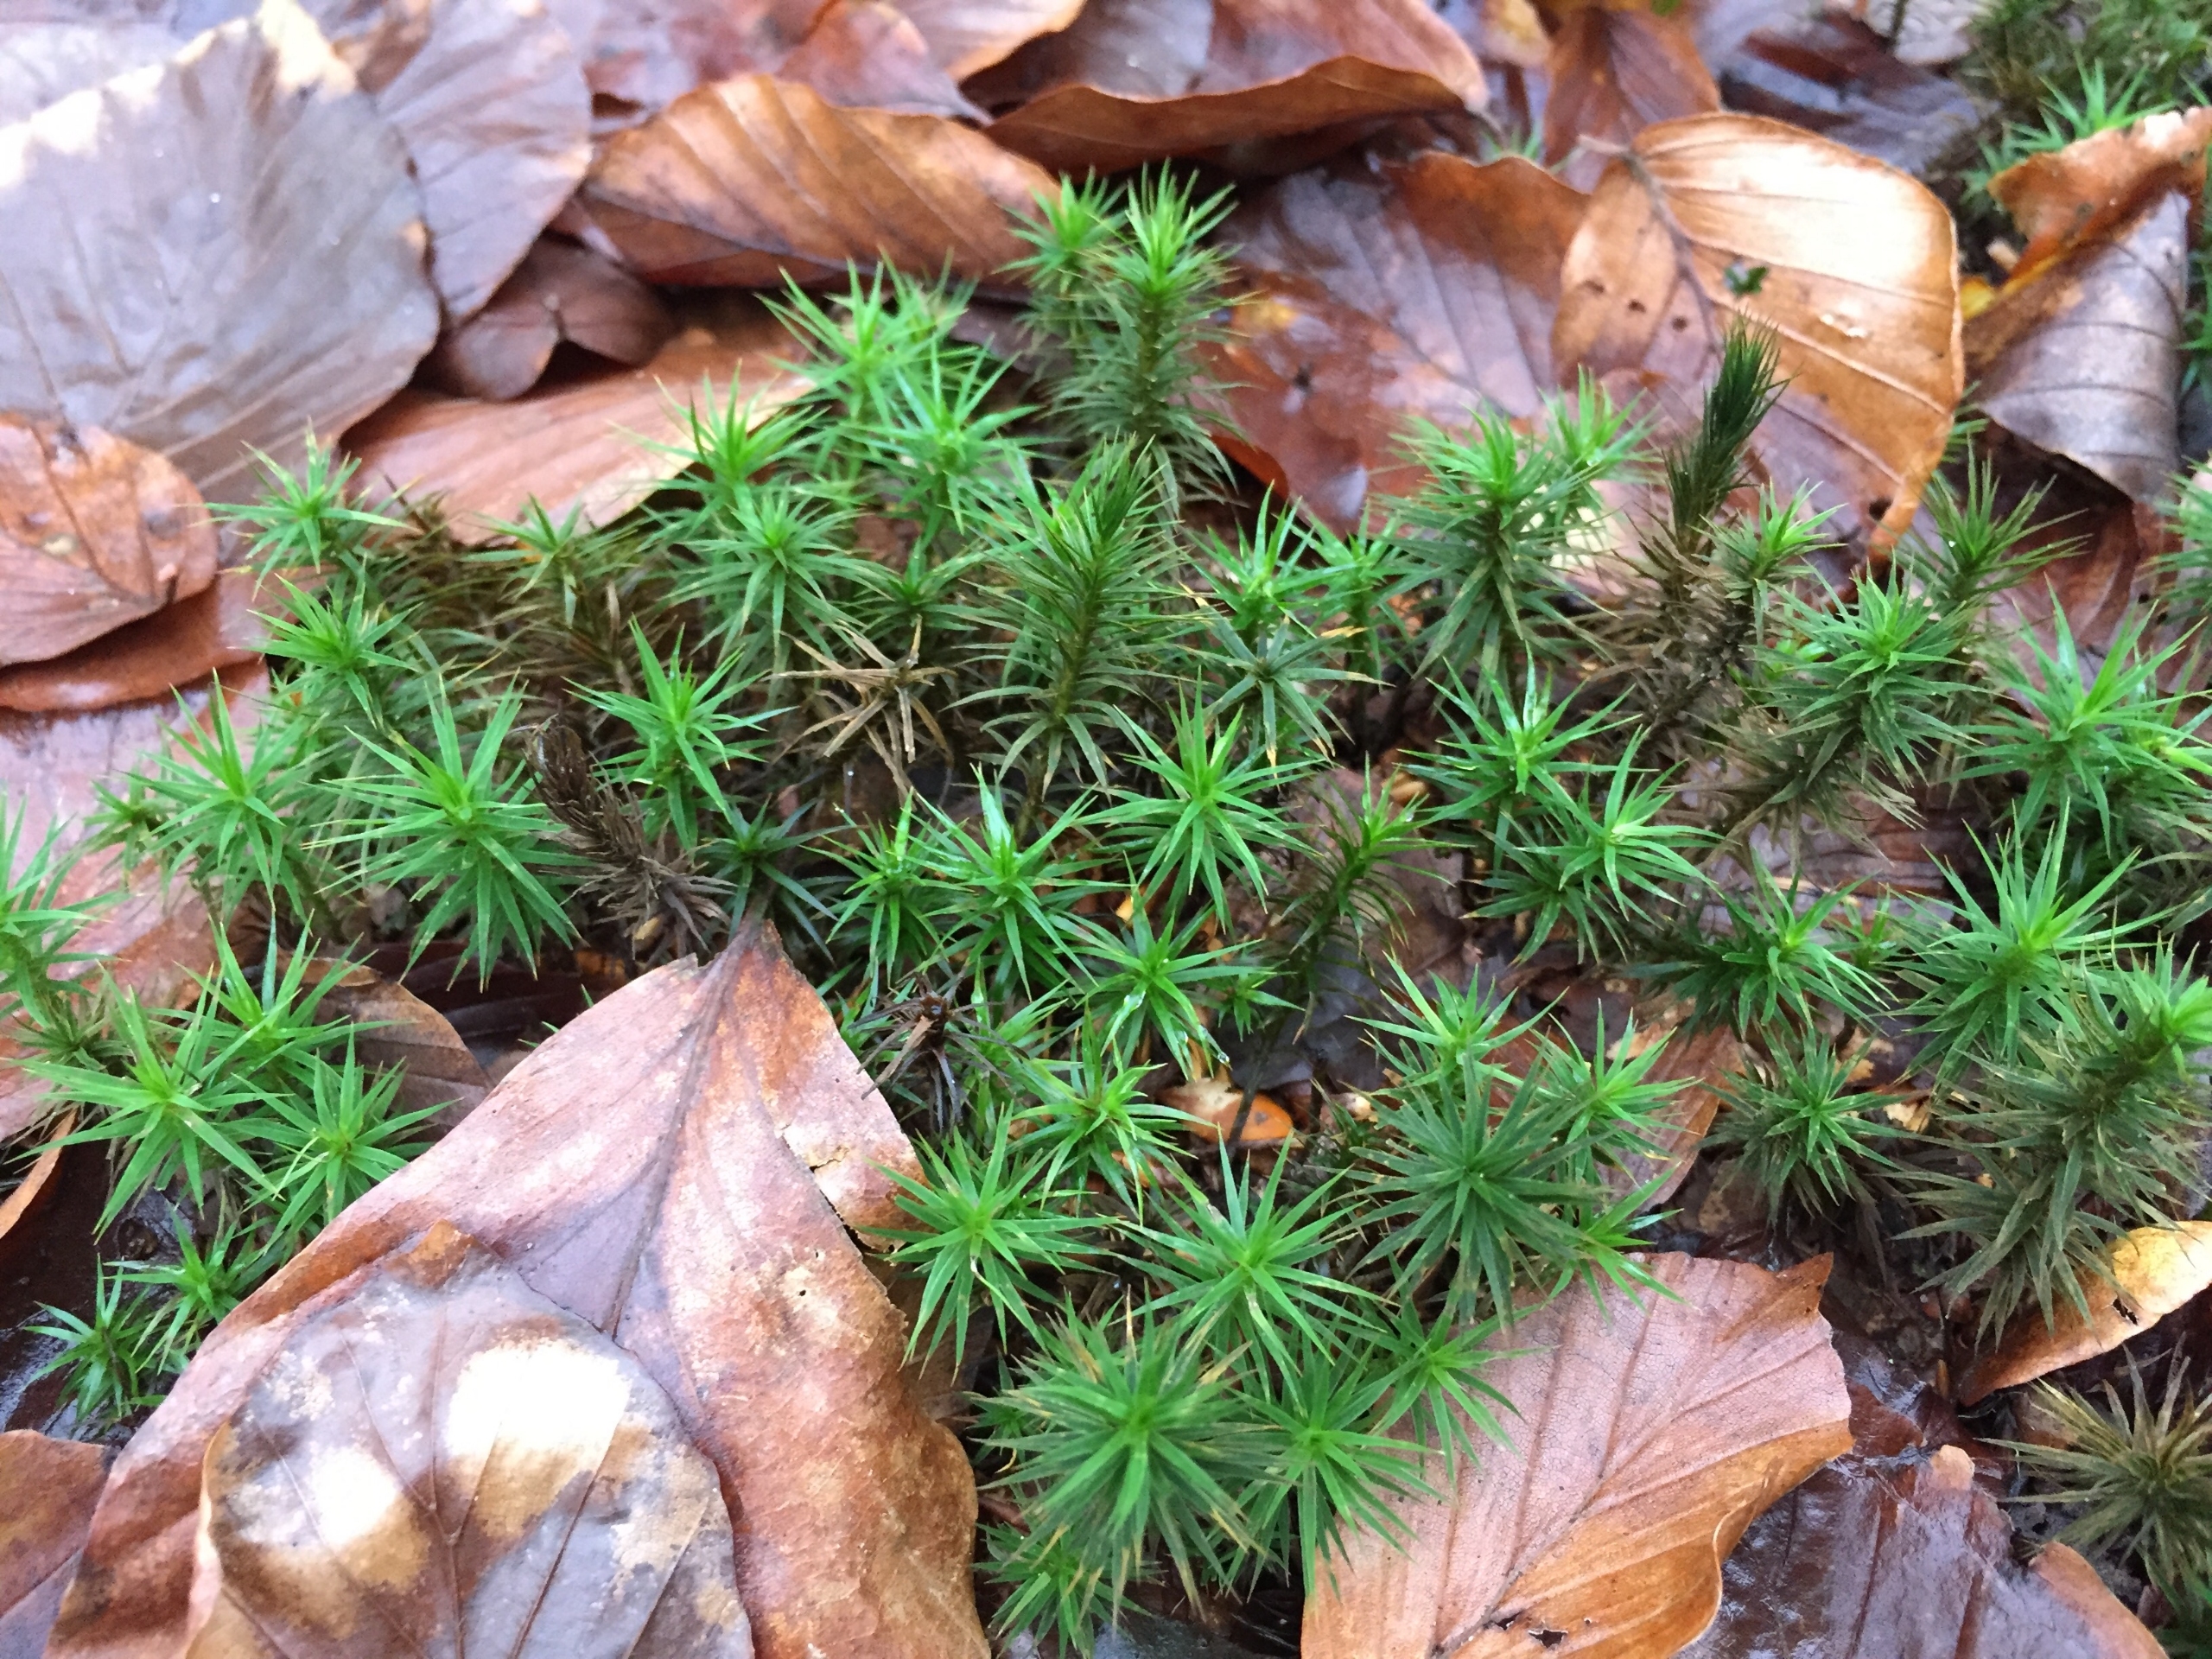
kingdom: Plantae
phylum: Bryophyta
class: Polytrichopsida
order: Polytrichales
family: Polytrichaceae
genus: Polytrichum
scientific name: Polytrichum formosum
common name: Skov-jomfruhår
